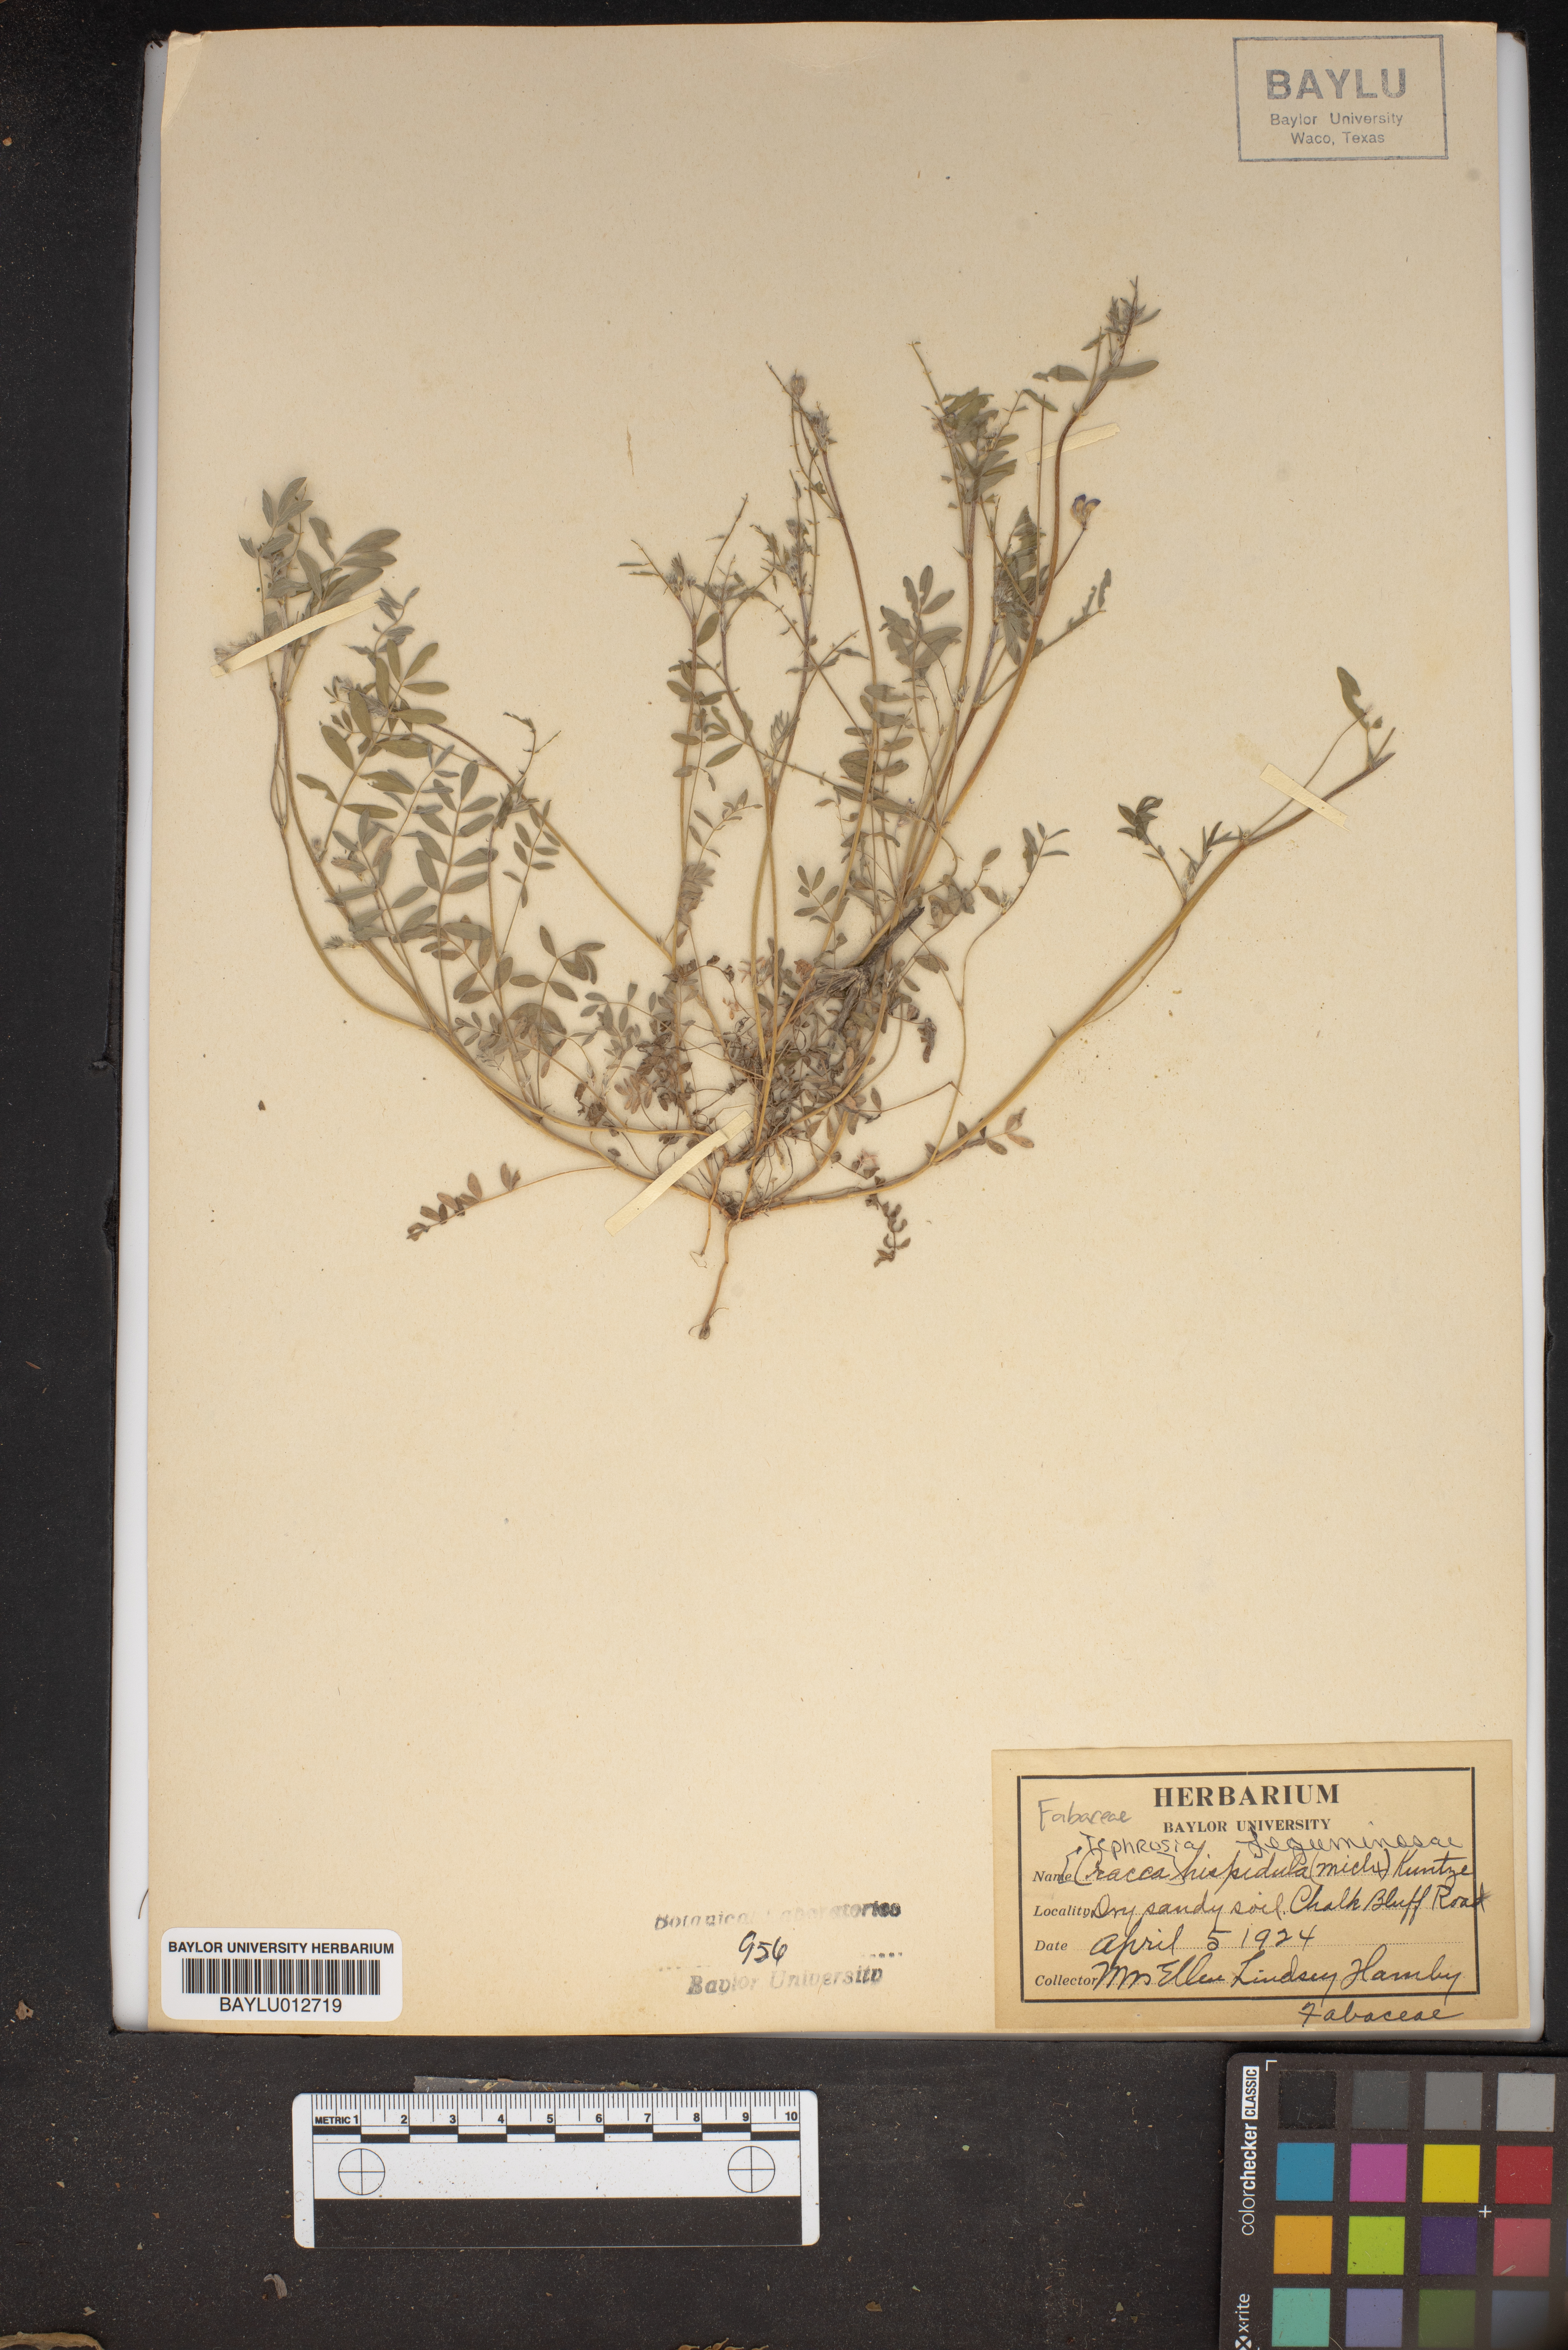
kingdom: Plantae
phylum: Tracheophyta
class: Magnoliopsida
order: Fabales
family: Fabaceae
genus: Tephrosia
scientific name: Tephrosia hispidula
